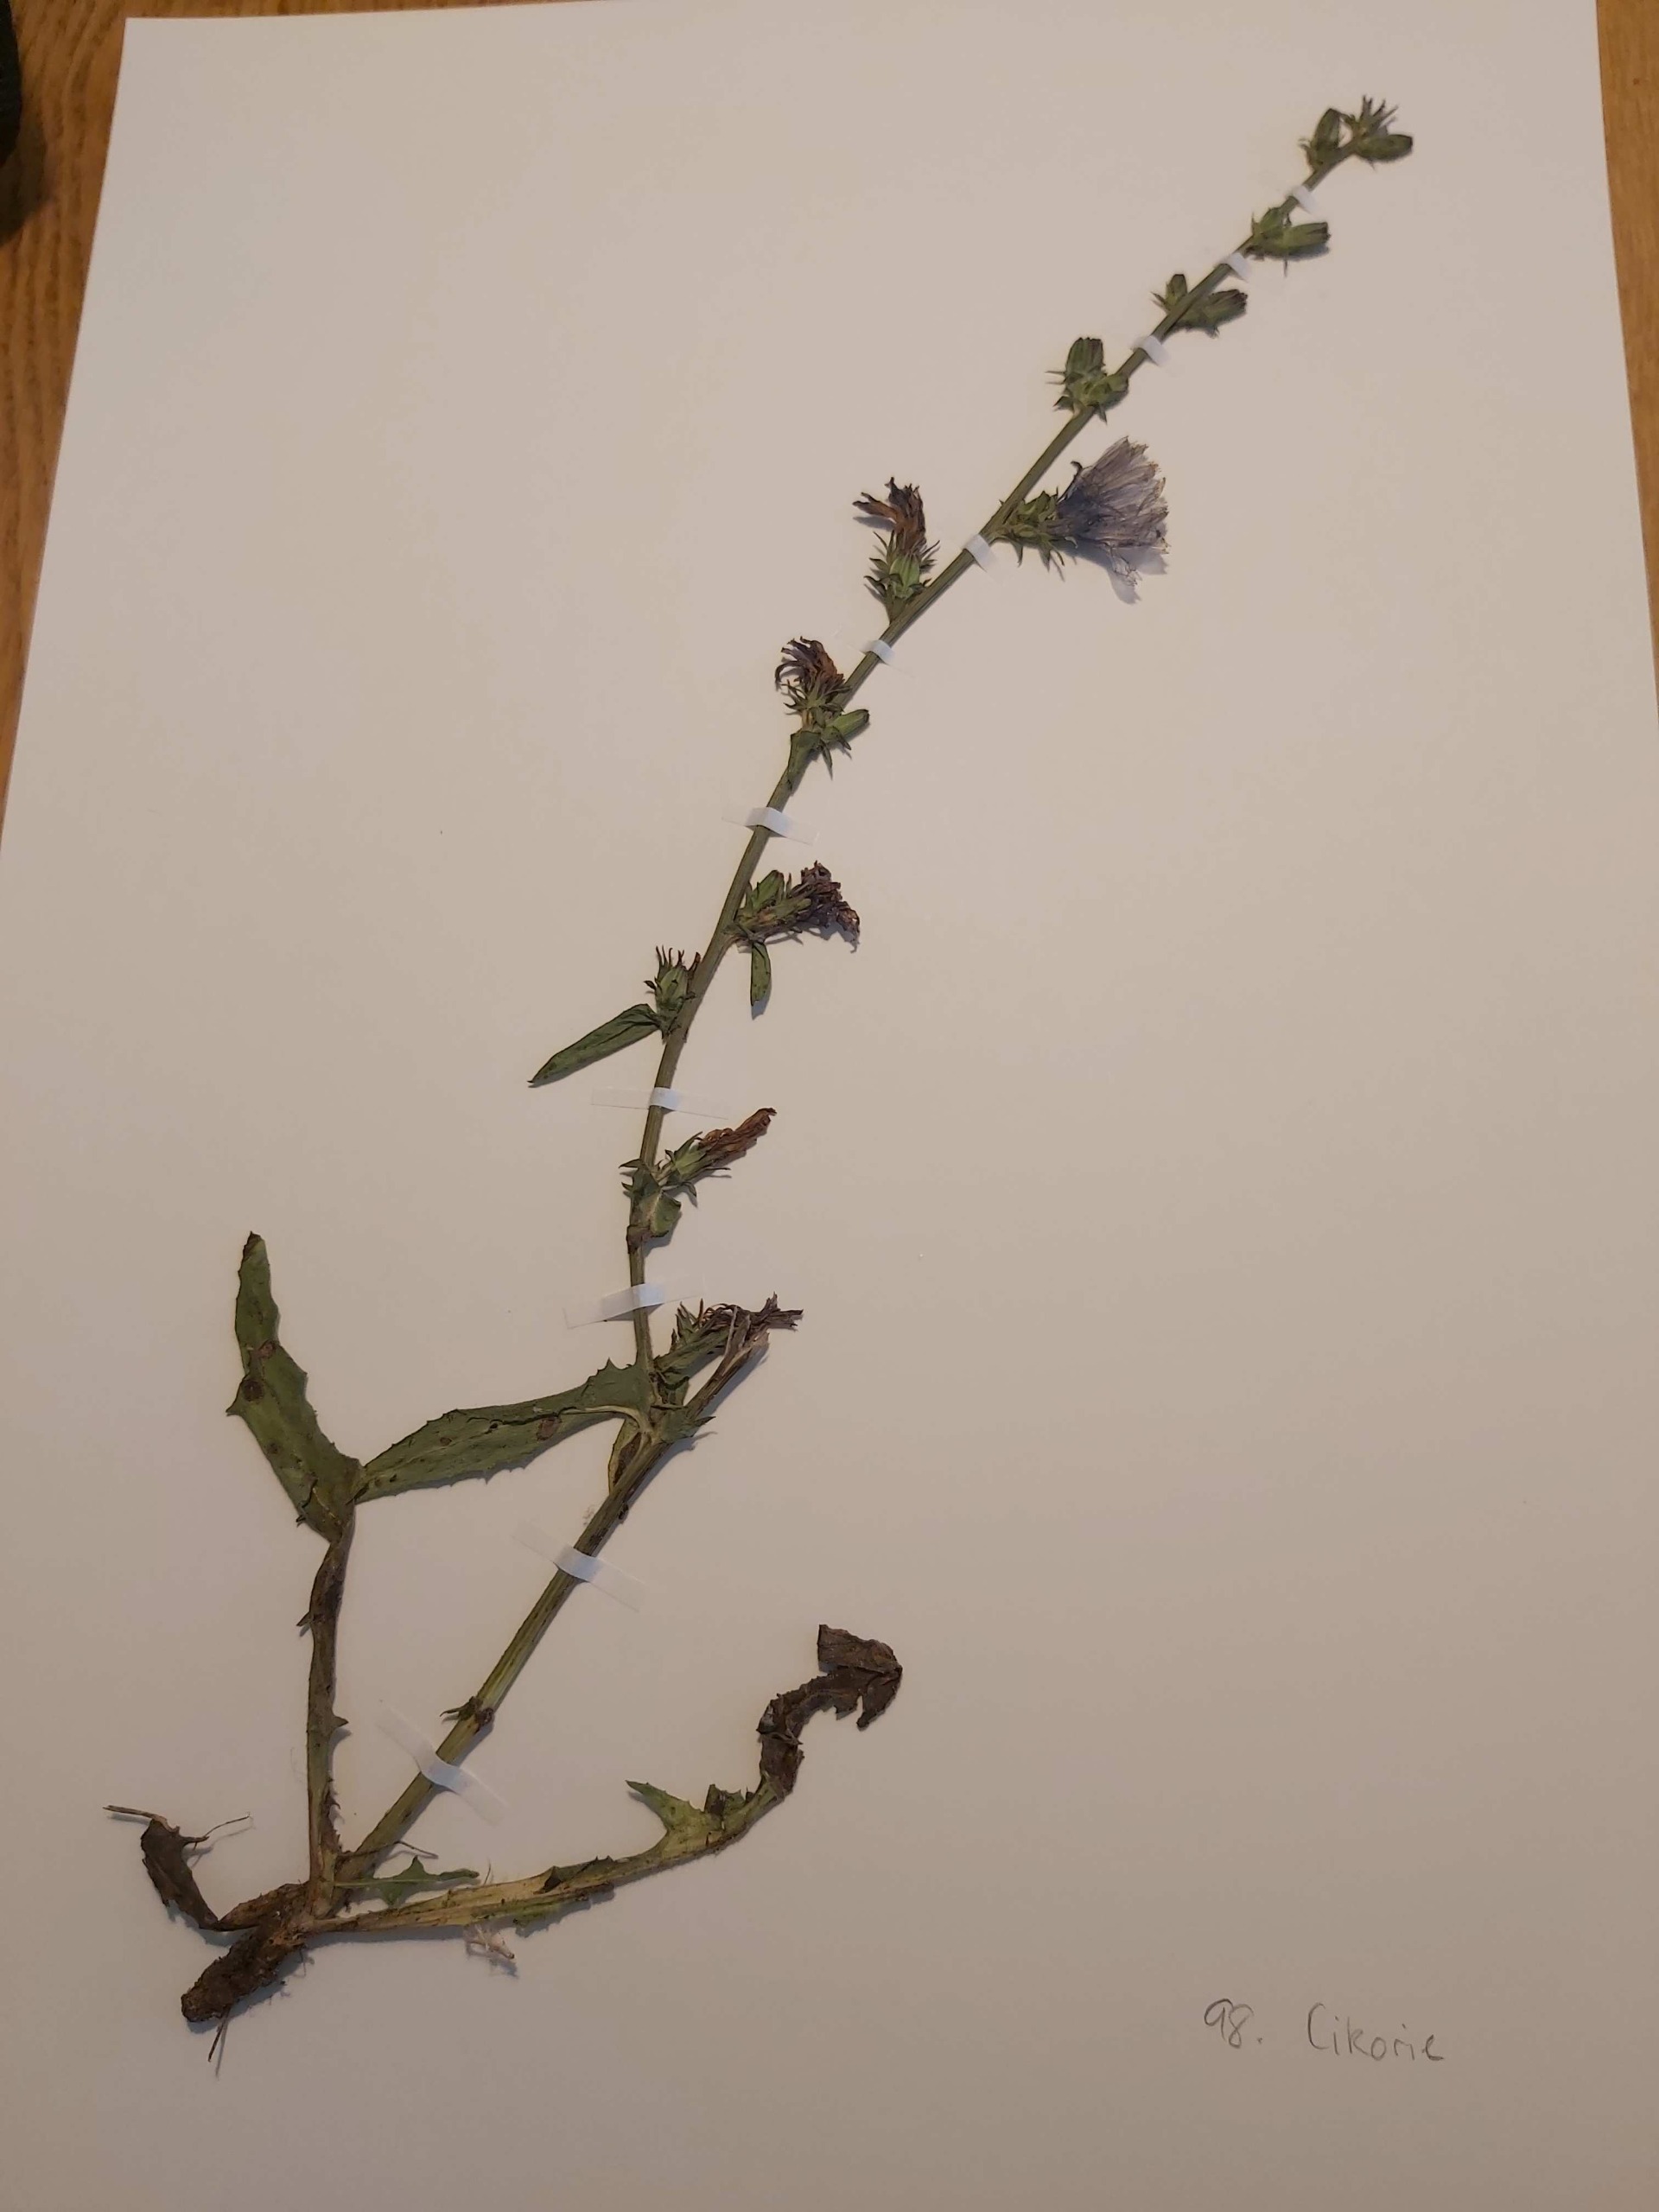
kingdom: Plantae
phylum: Tracheophyta
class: Magnoliopsida
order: Asterales
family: Asteraceae
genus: Cichorium
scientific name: Cichorium intybus
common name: Cikorie
